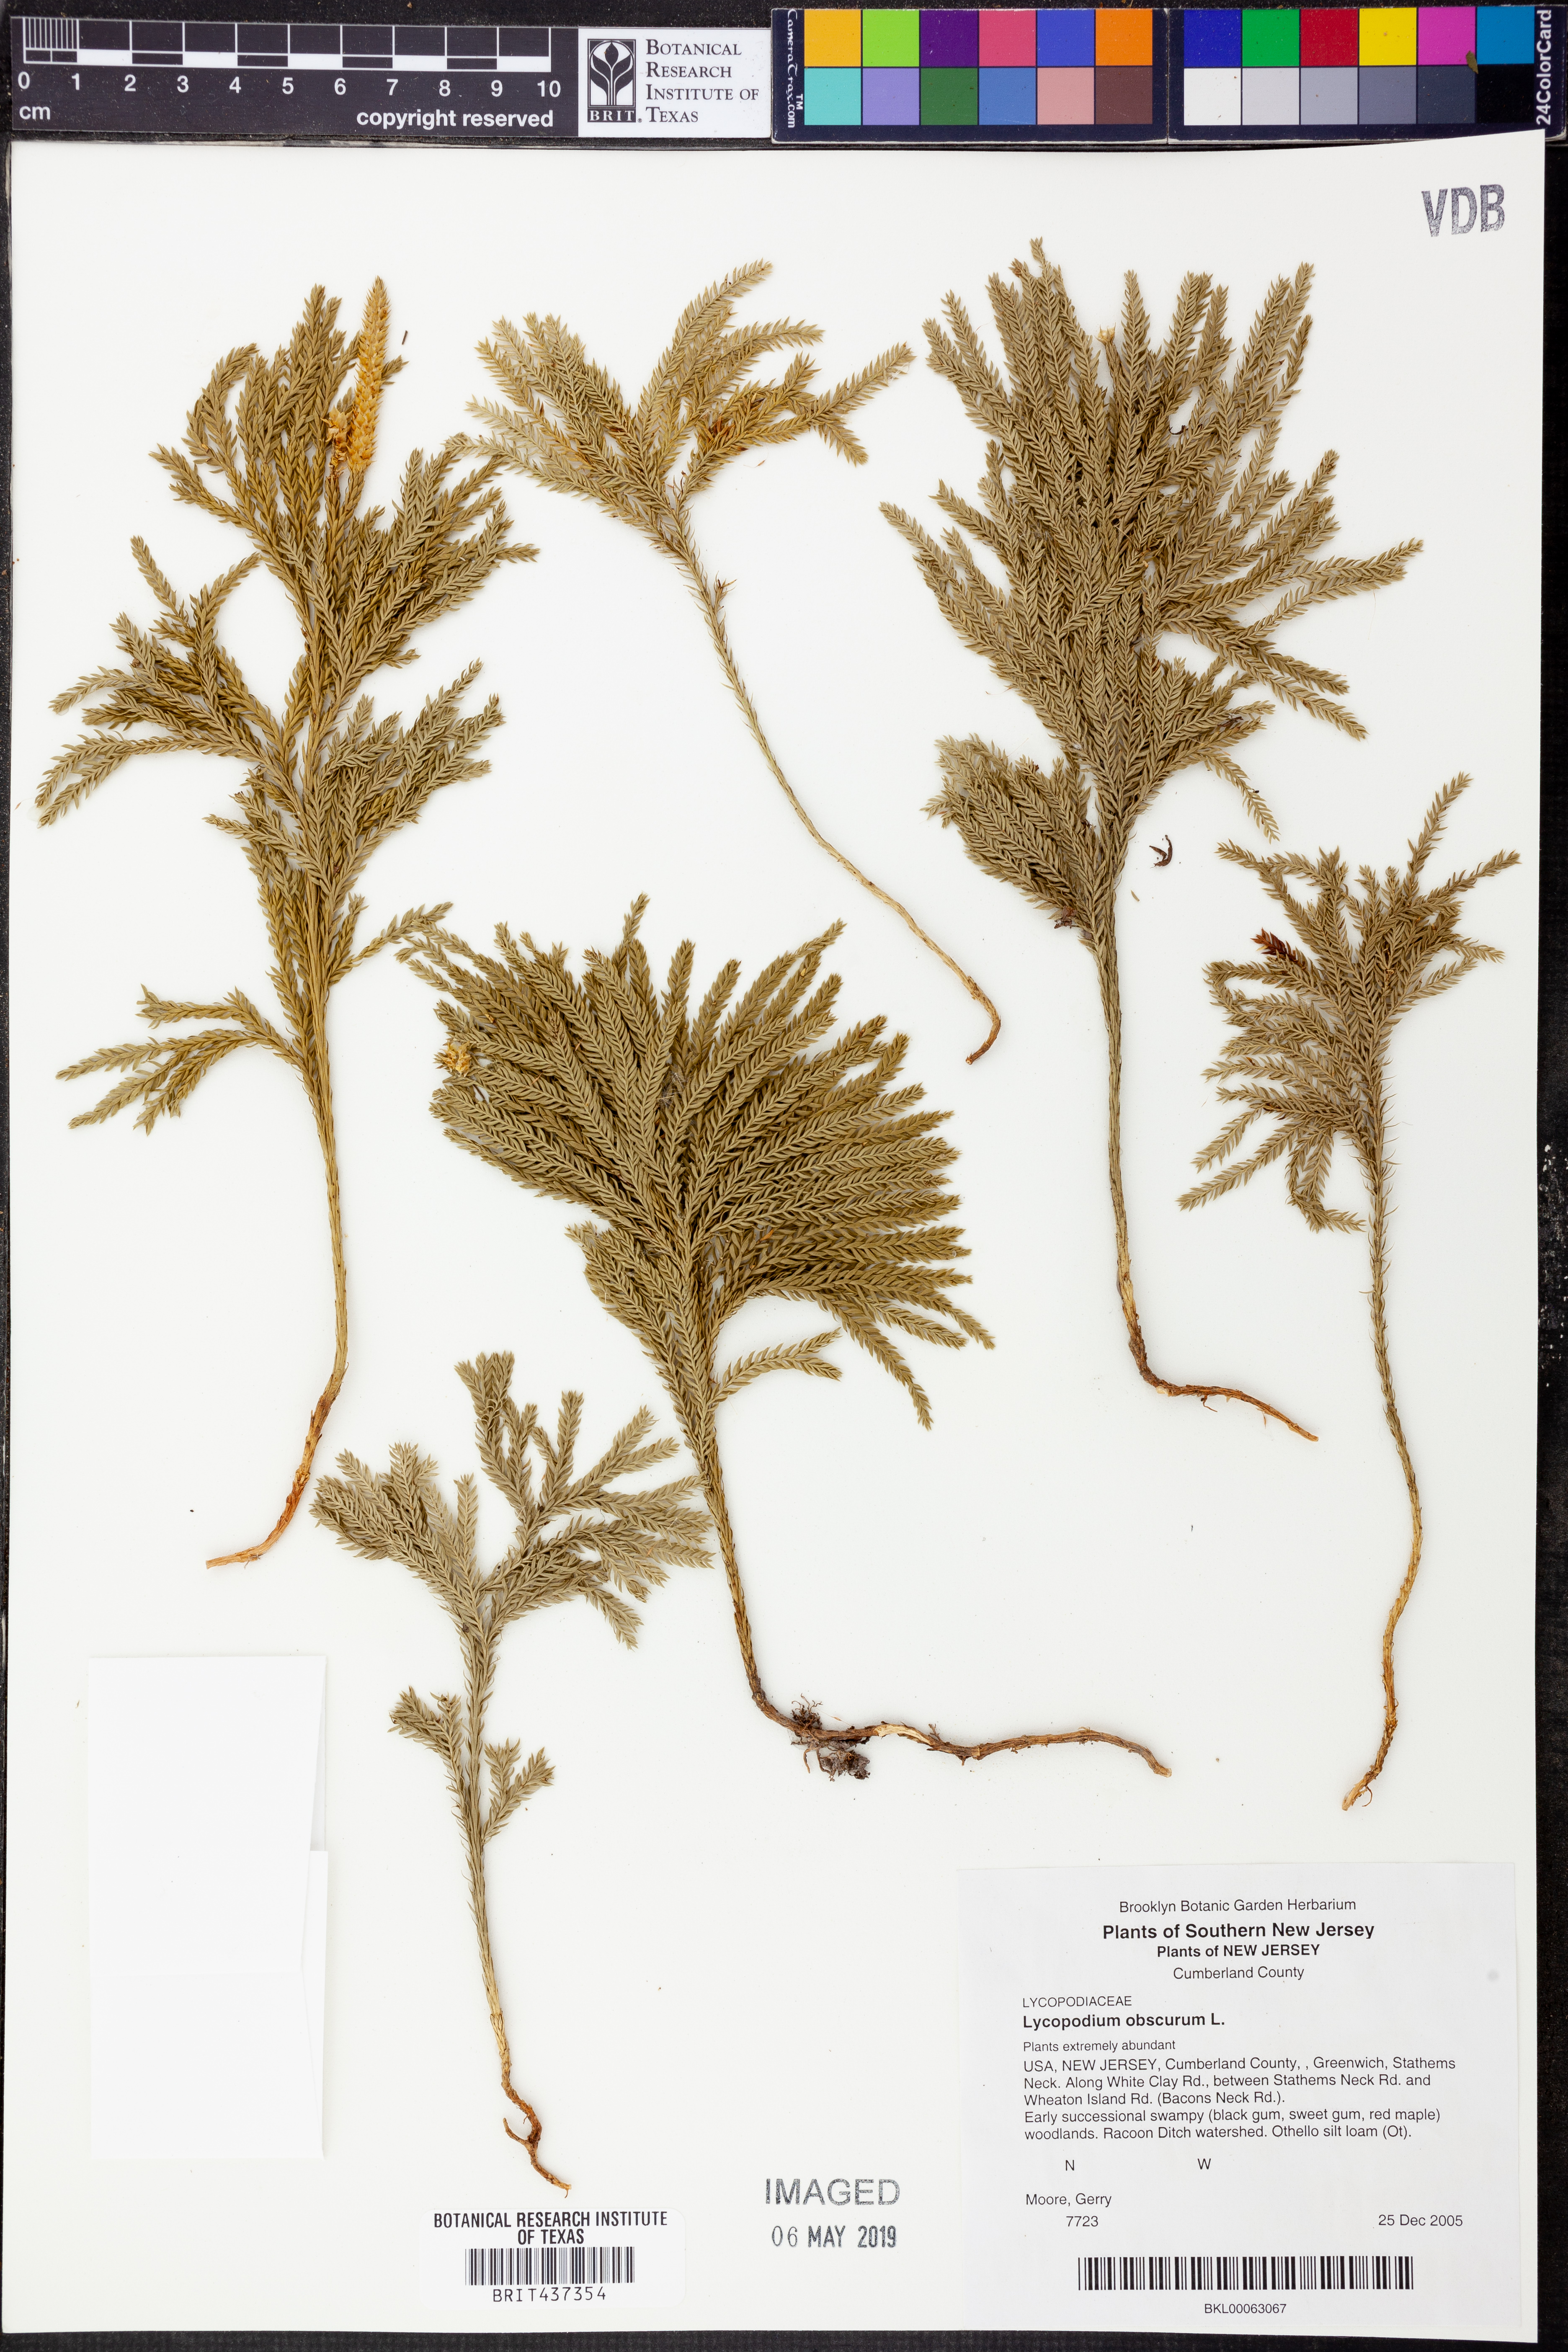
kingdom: Plantae
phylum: Tracheophyta
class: Lycopodiopsida
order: Lycopodiales
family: Lycopodiaceae
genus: Dendrolycopodium
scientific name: Dendrolycopodium obscurum
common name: Common ground-pine
